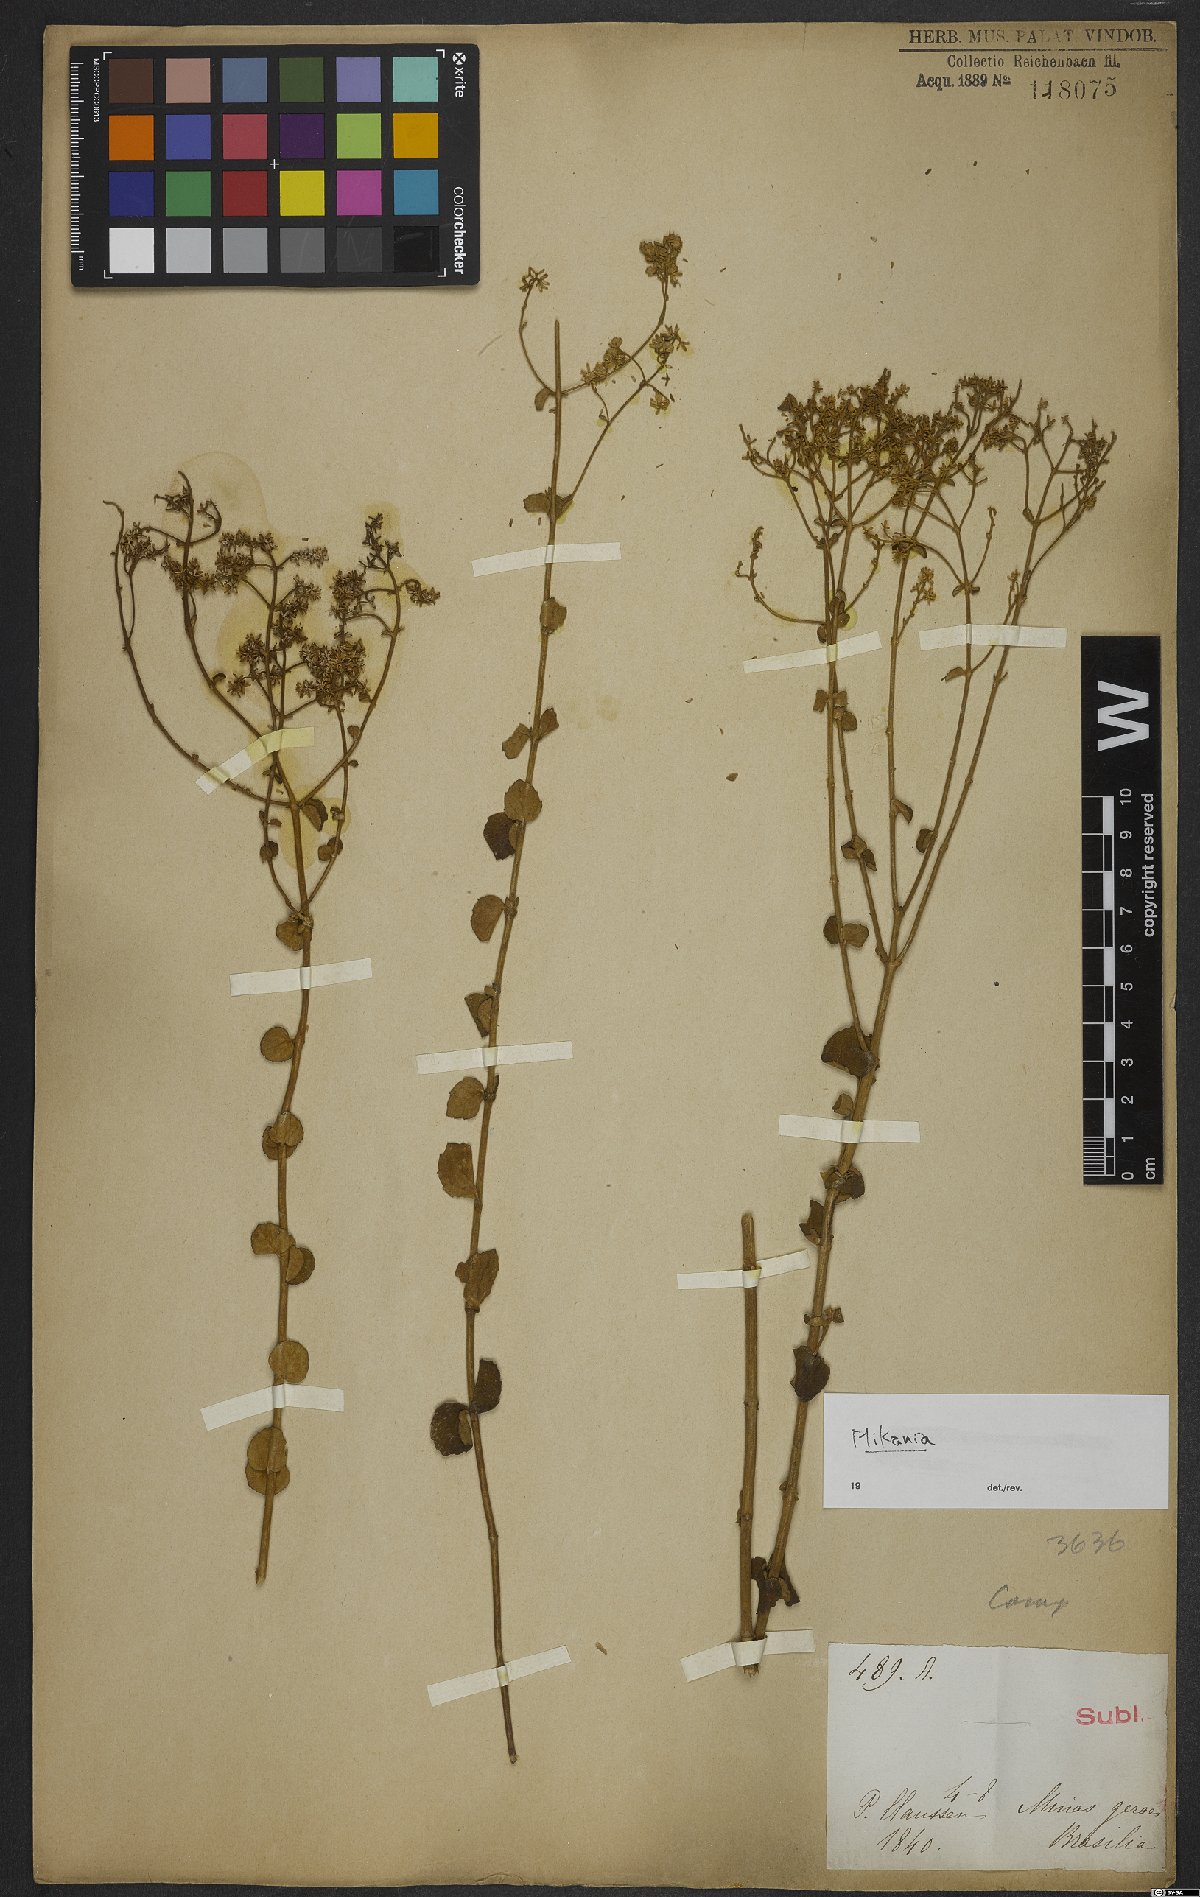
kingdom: Plantae
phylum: Tracheophyta
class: Magnoliopsida
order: Asterales
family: Asteraceae
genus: Mikania
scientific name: Mikania
